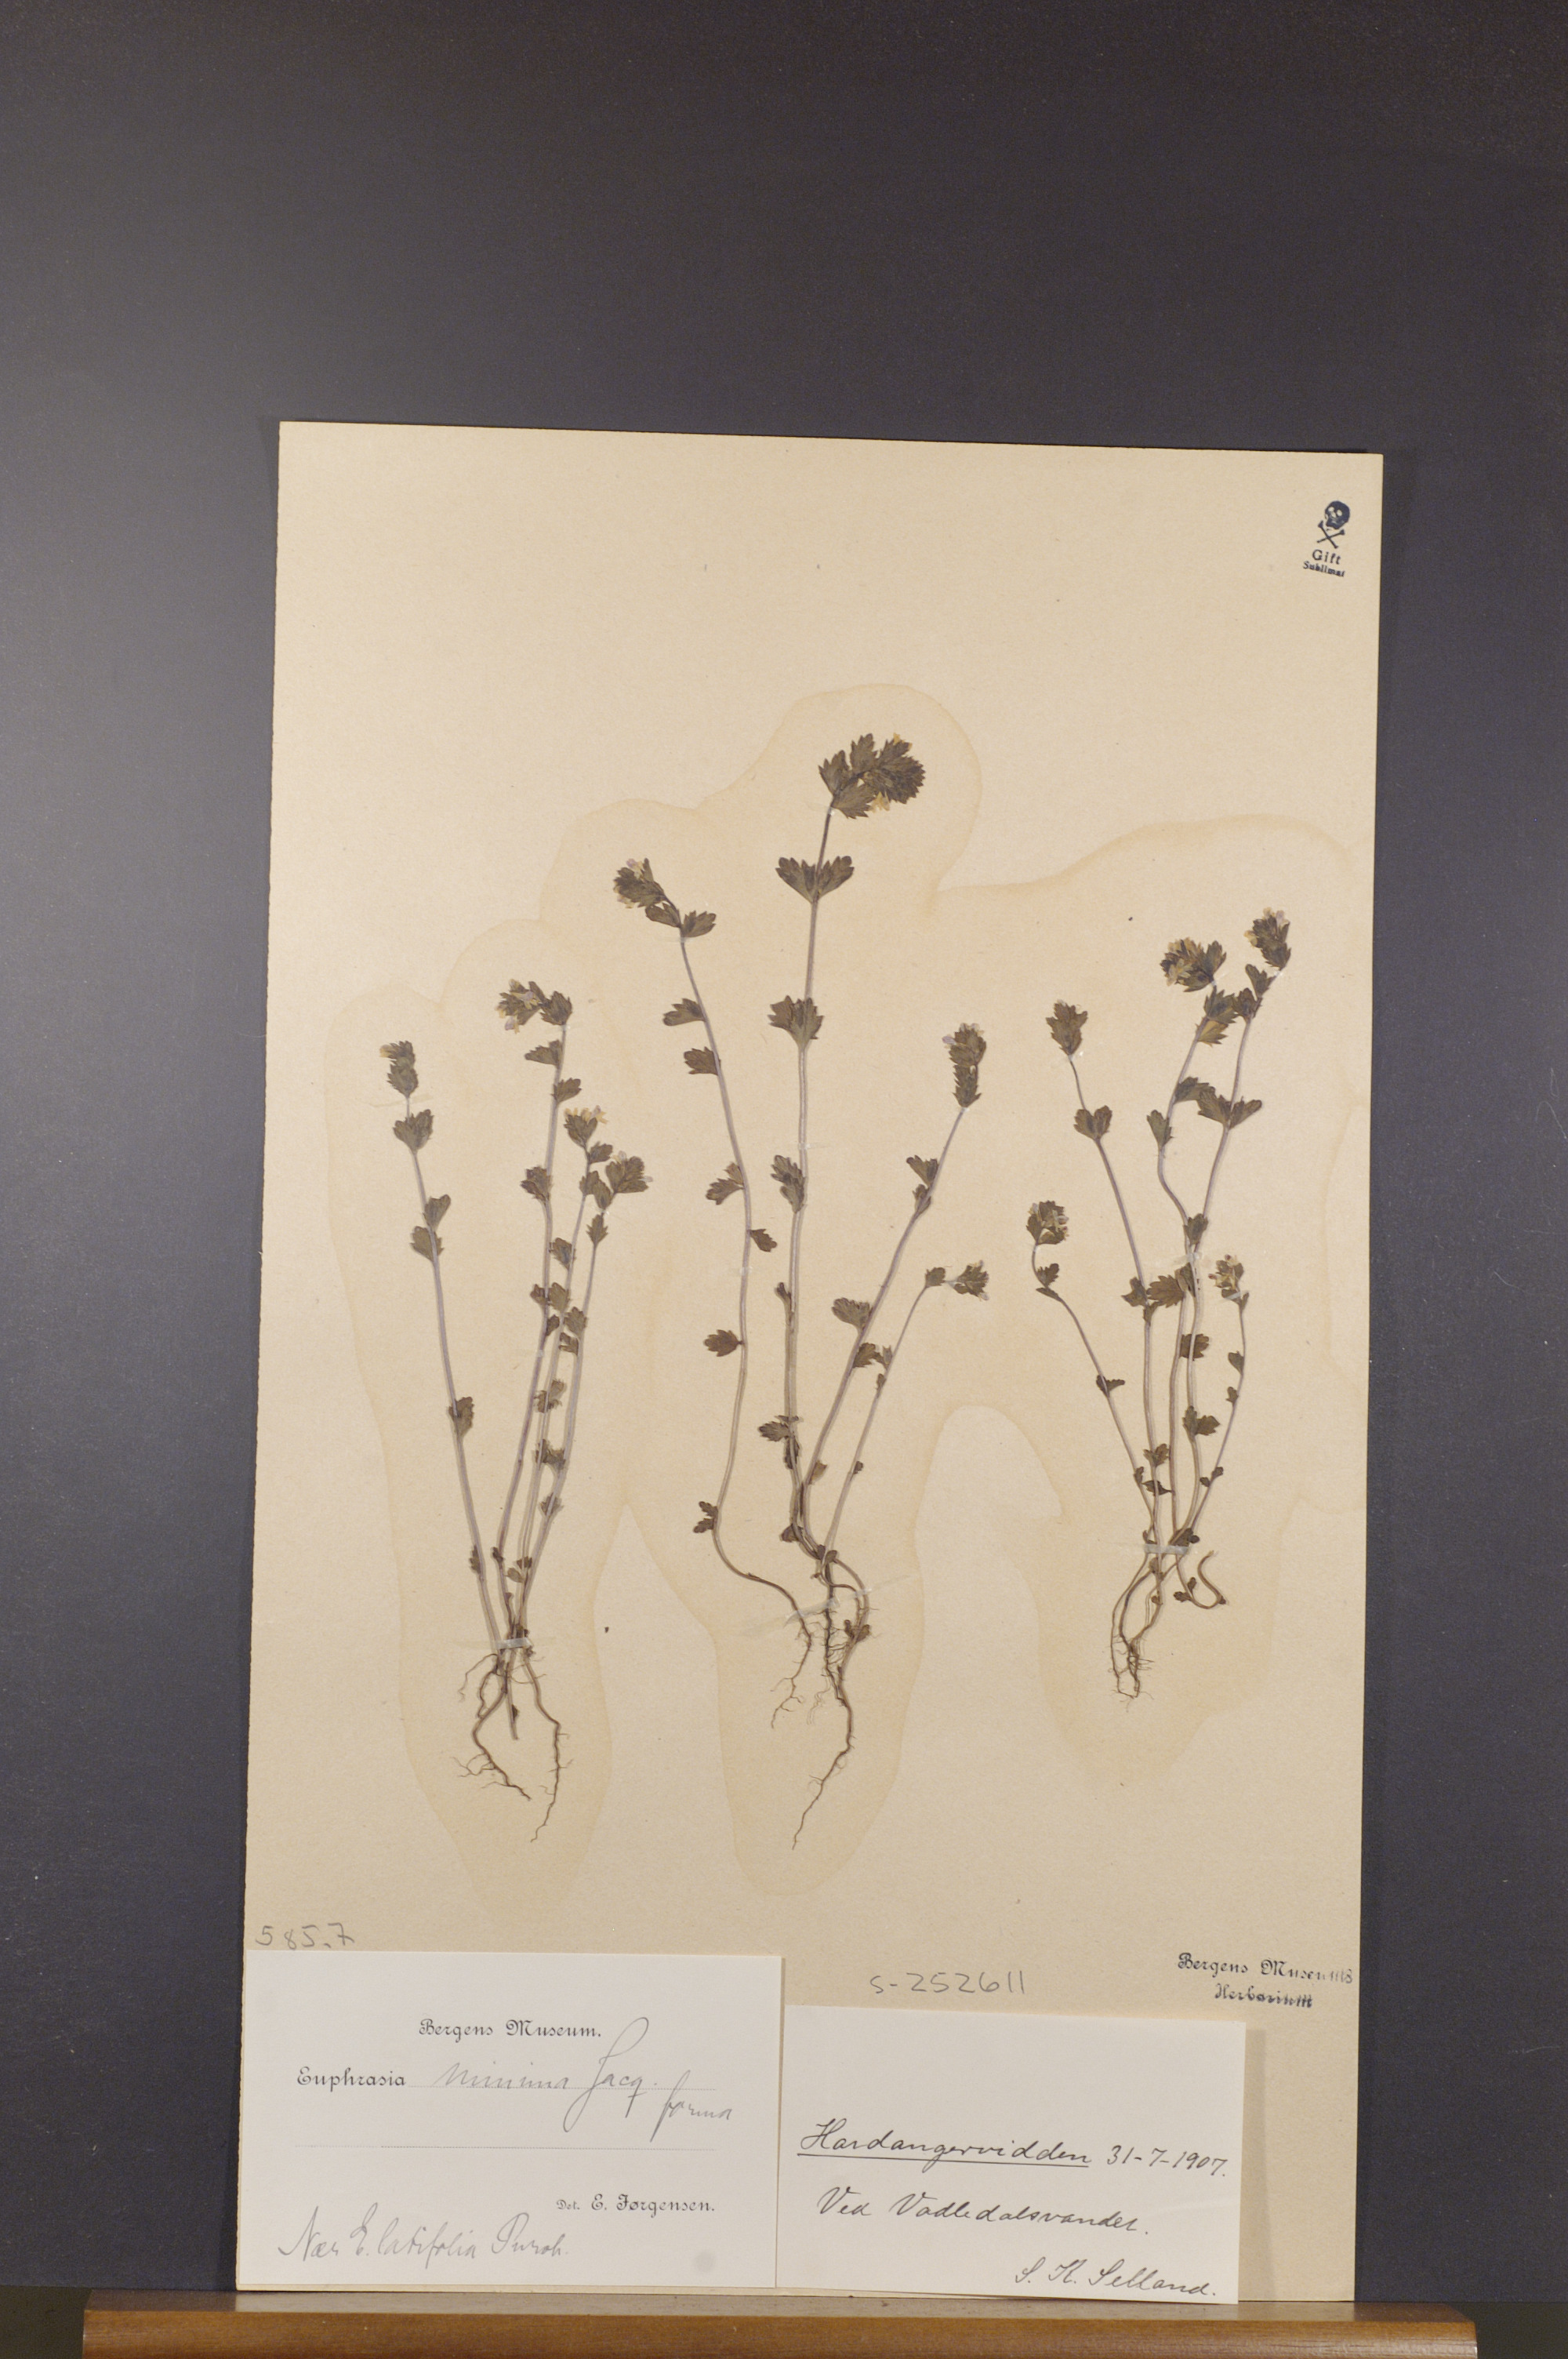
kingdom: Plantae
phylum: Tracheophyta
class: Magnoliopsida
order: Lamiales
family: Orobanchaceae
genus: Euphrasia
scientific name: Euphrasia minima
